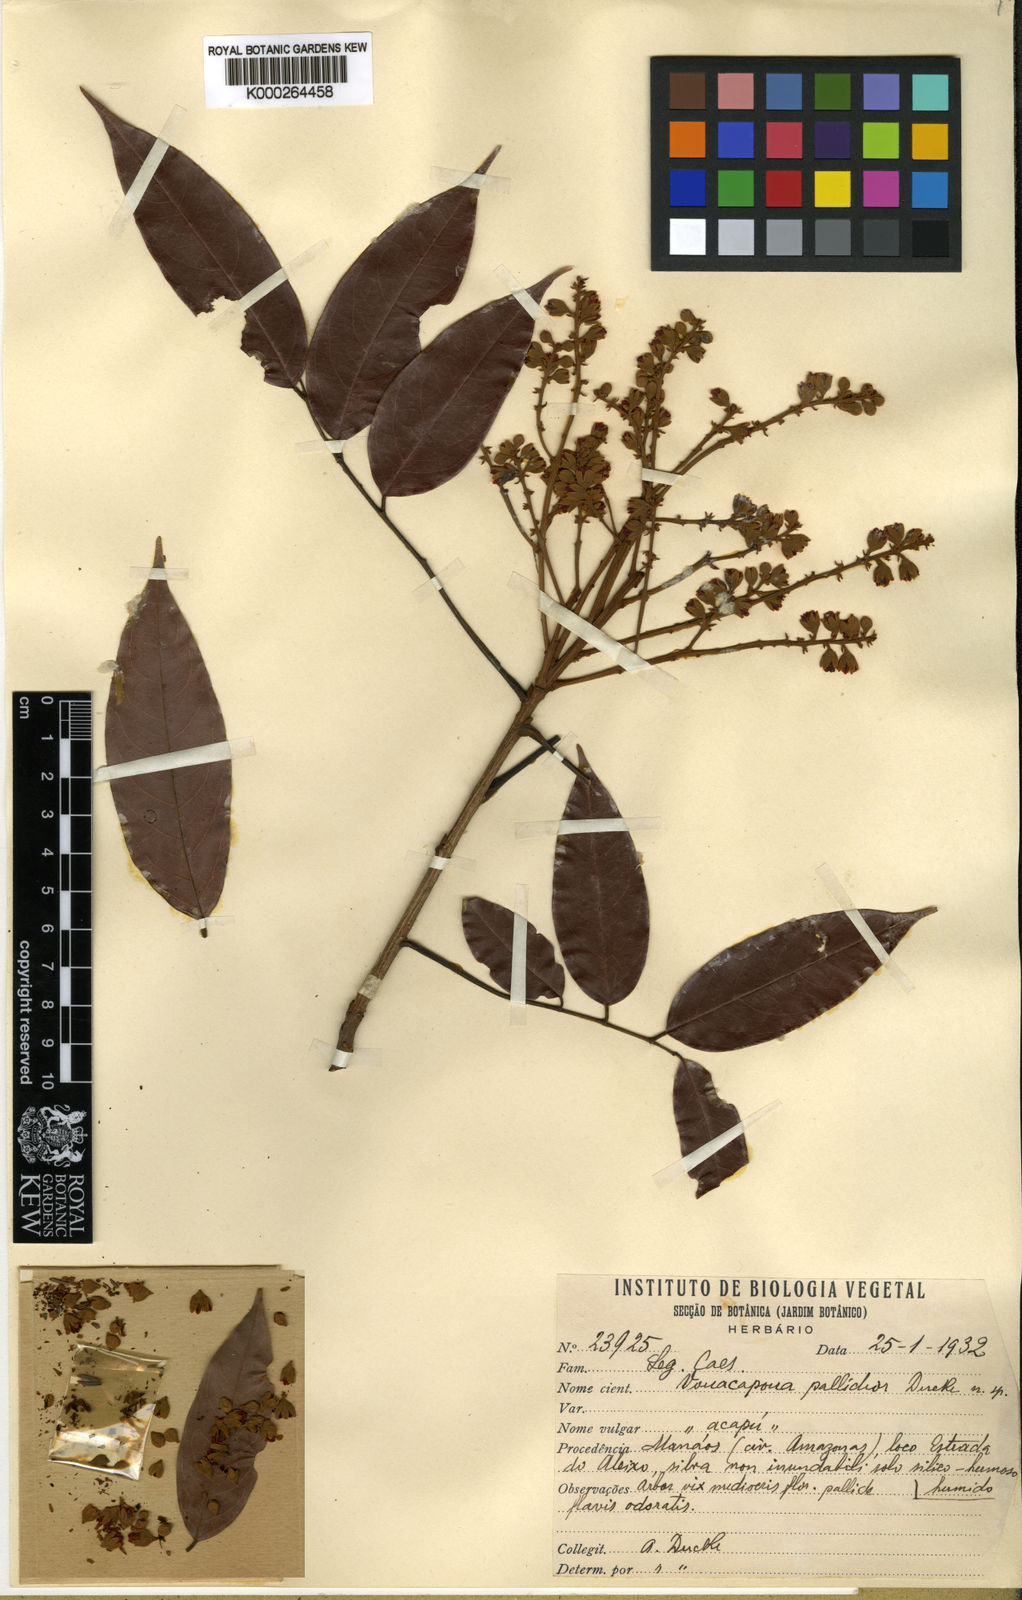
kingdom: Plantae
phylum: Tracheophyta
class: Magnoliopsida
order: Fabales
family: Fabaceae
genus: Vouacapoua
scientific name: Vouacapoua pallidior
